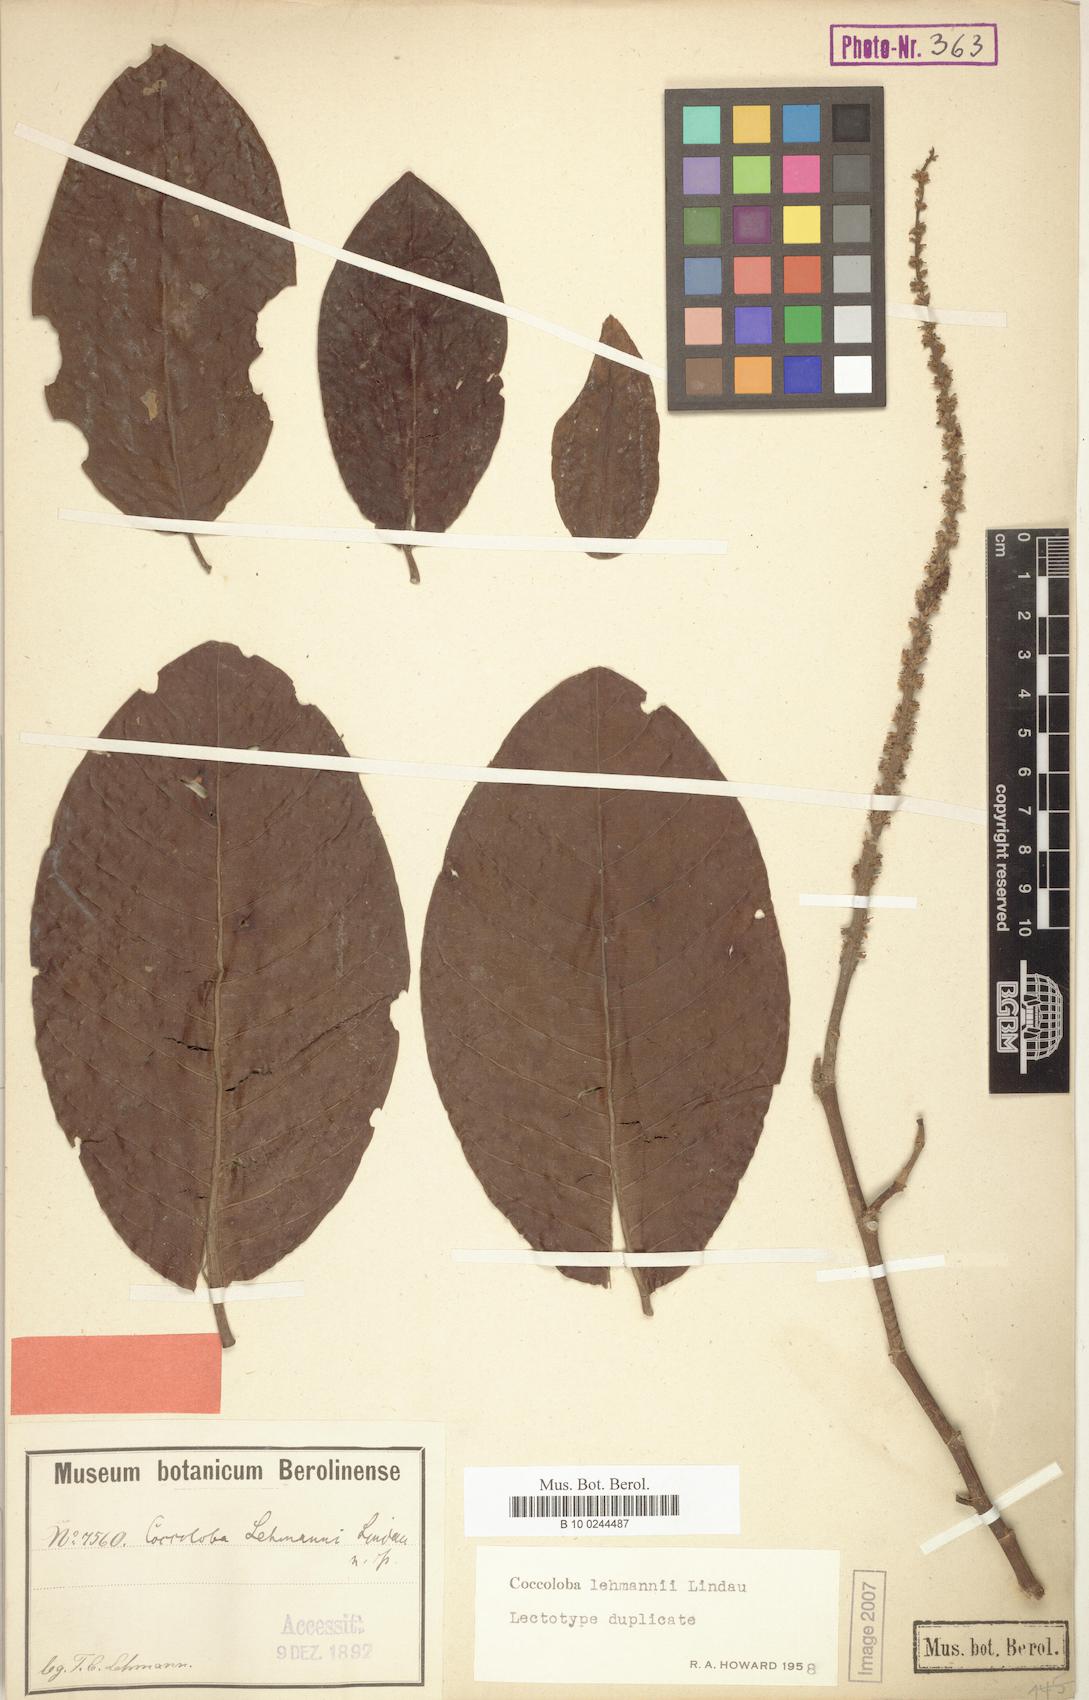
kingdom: Plantae
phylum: Tracheophyta
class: Magnoliopsida
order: Caryophyllales
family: Polygonaceae
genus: Coccoloba
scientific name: Coccoloba lehmannii
